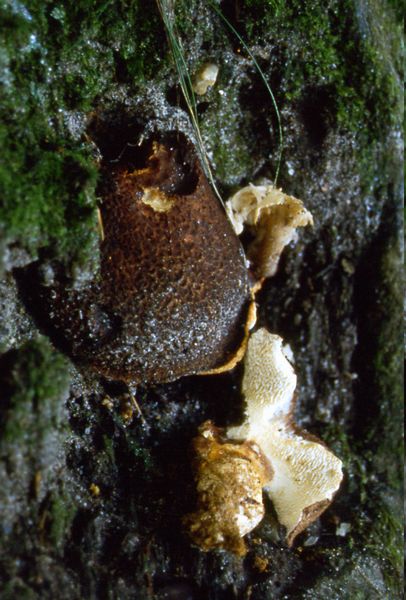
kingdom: Fungi
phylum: Basidiomycota
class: Agaricomycetes
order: Russulales
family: Albatrellaceae
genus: Scutiger
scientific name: Scutiger pes-caprae
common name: skællet fåreporesvamp
